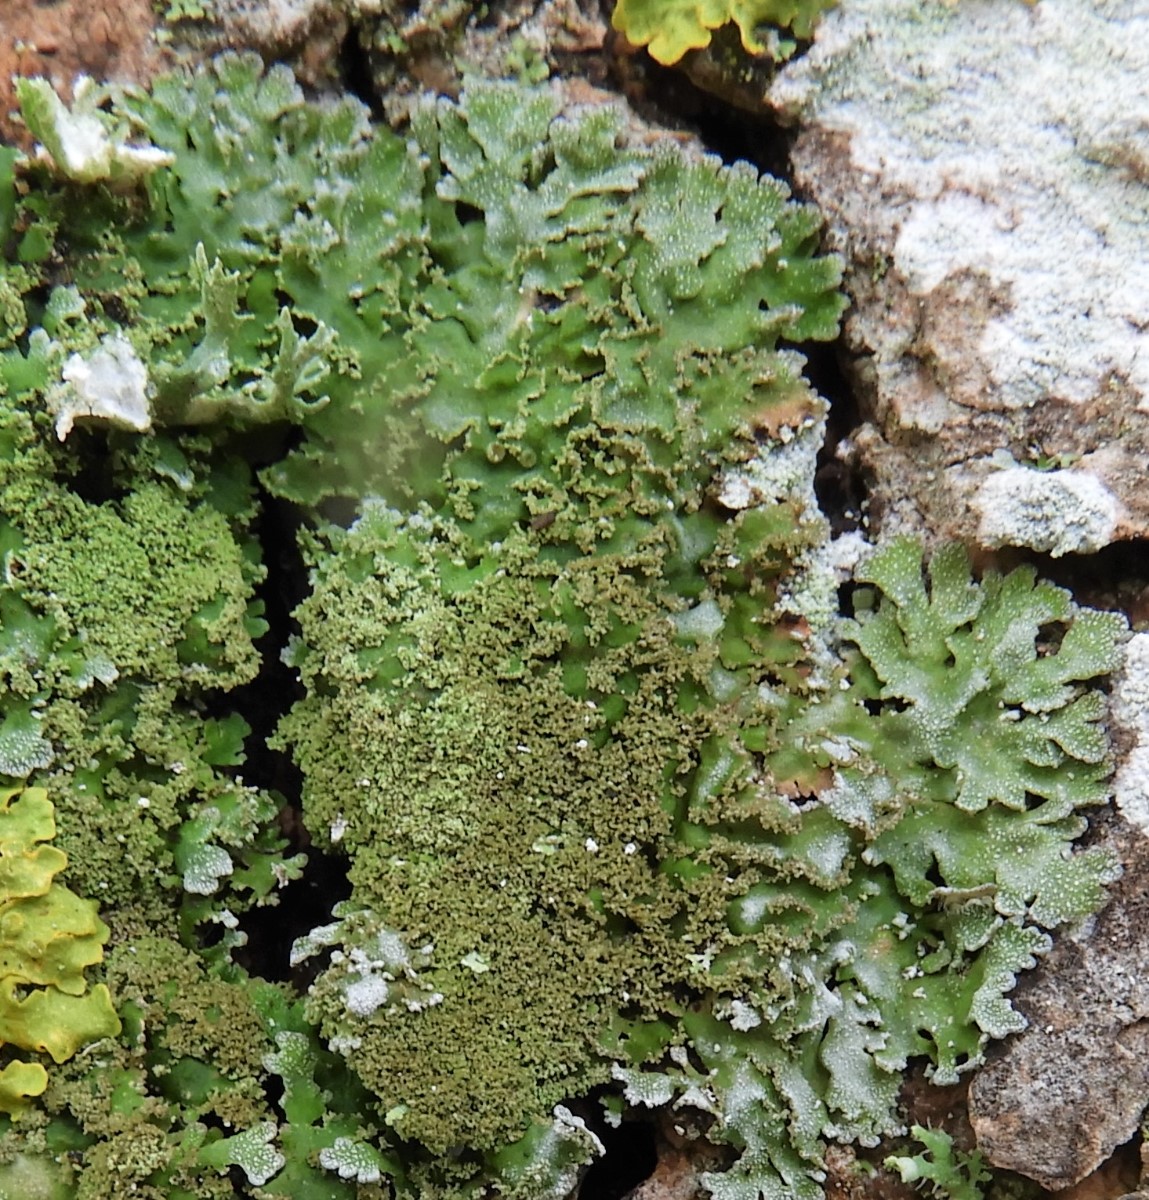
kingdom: Fungi
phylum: Ascomycota
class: Lecanoromycetes
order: Caliciales
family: Physciaceae
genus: Physconia
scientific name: Physconia
